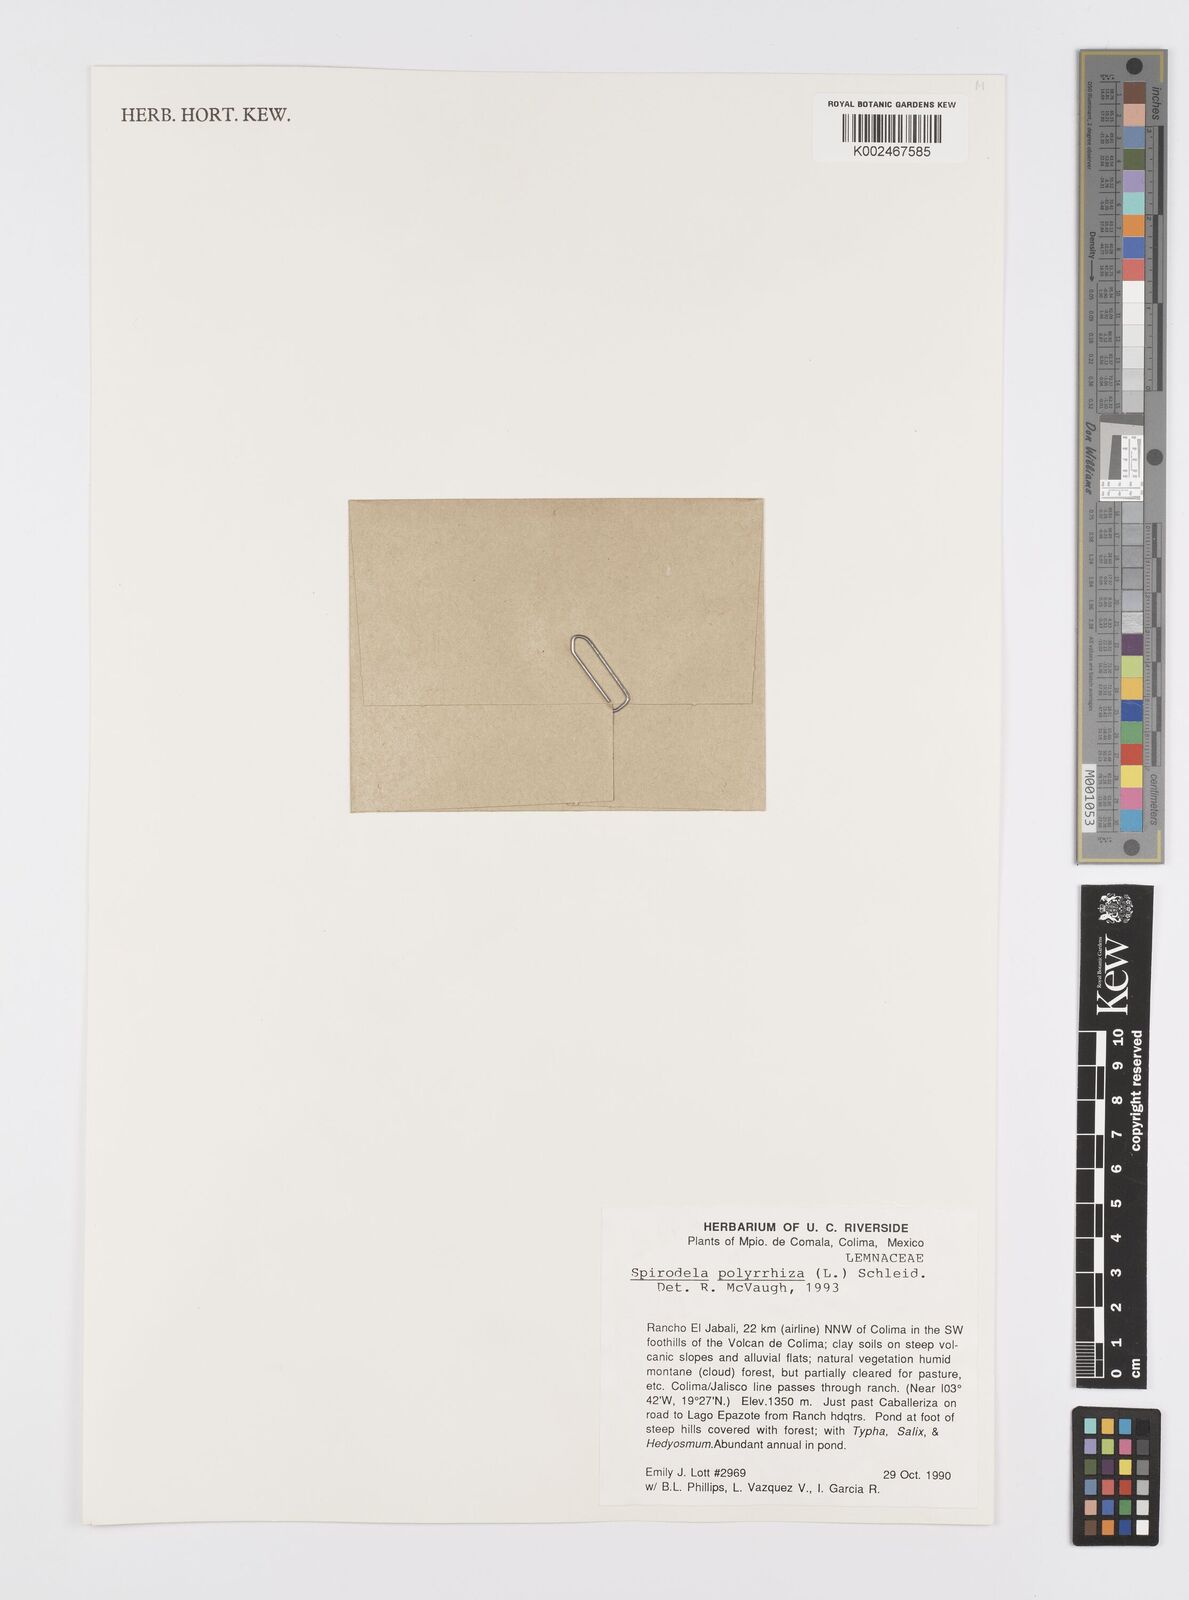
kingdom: Plantae
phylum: Tracheophyta
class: Liliopsida
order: Alismatales
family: Araceae
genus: Spirodela
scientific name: Spirodela polyrhiza
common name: Great duckweed
